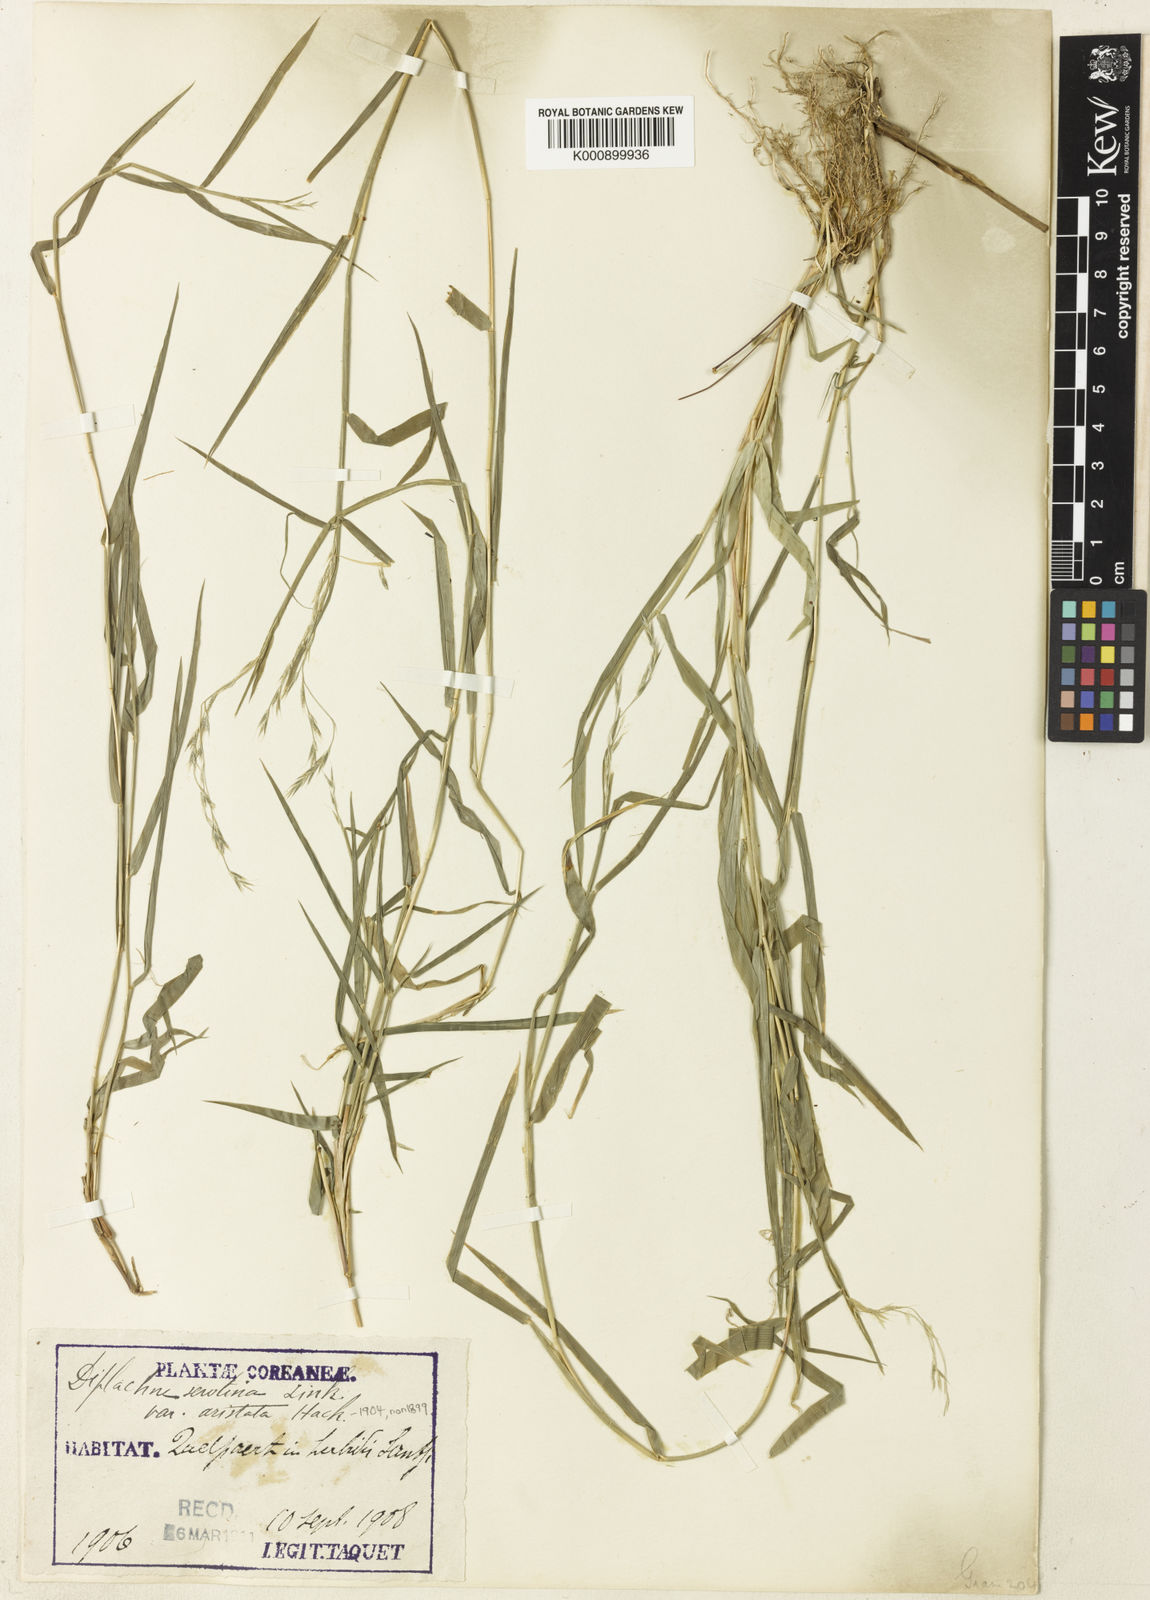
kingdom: Plantae
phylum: Tracheophyta
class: Liliopsida
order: Poales
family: Poaceae
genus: Cleistogenes
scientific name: Cleistogenes hackelii
